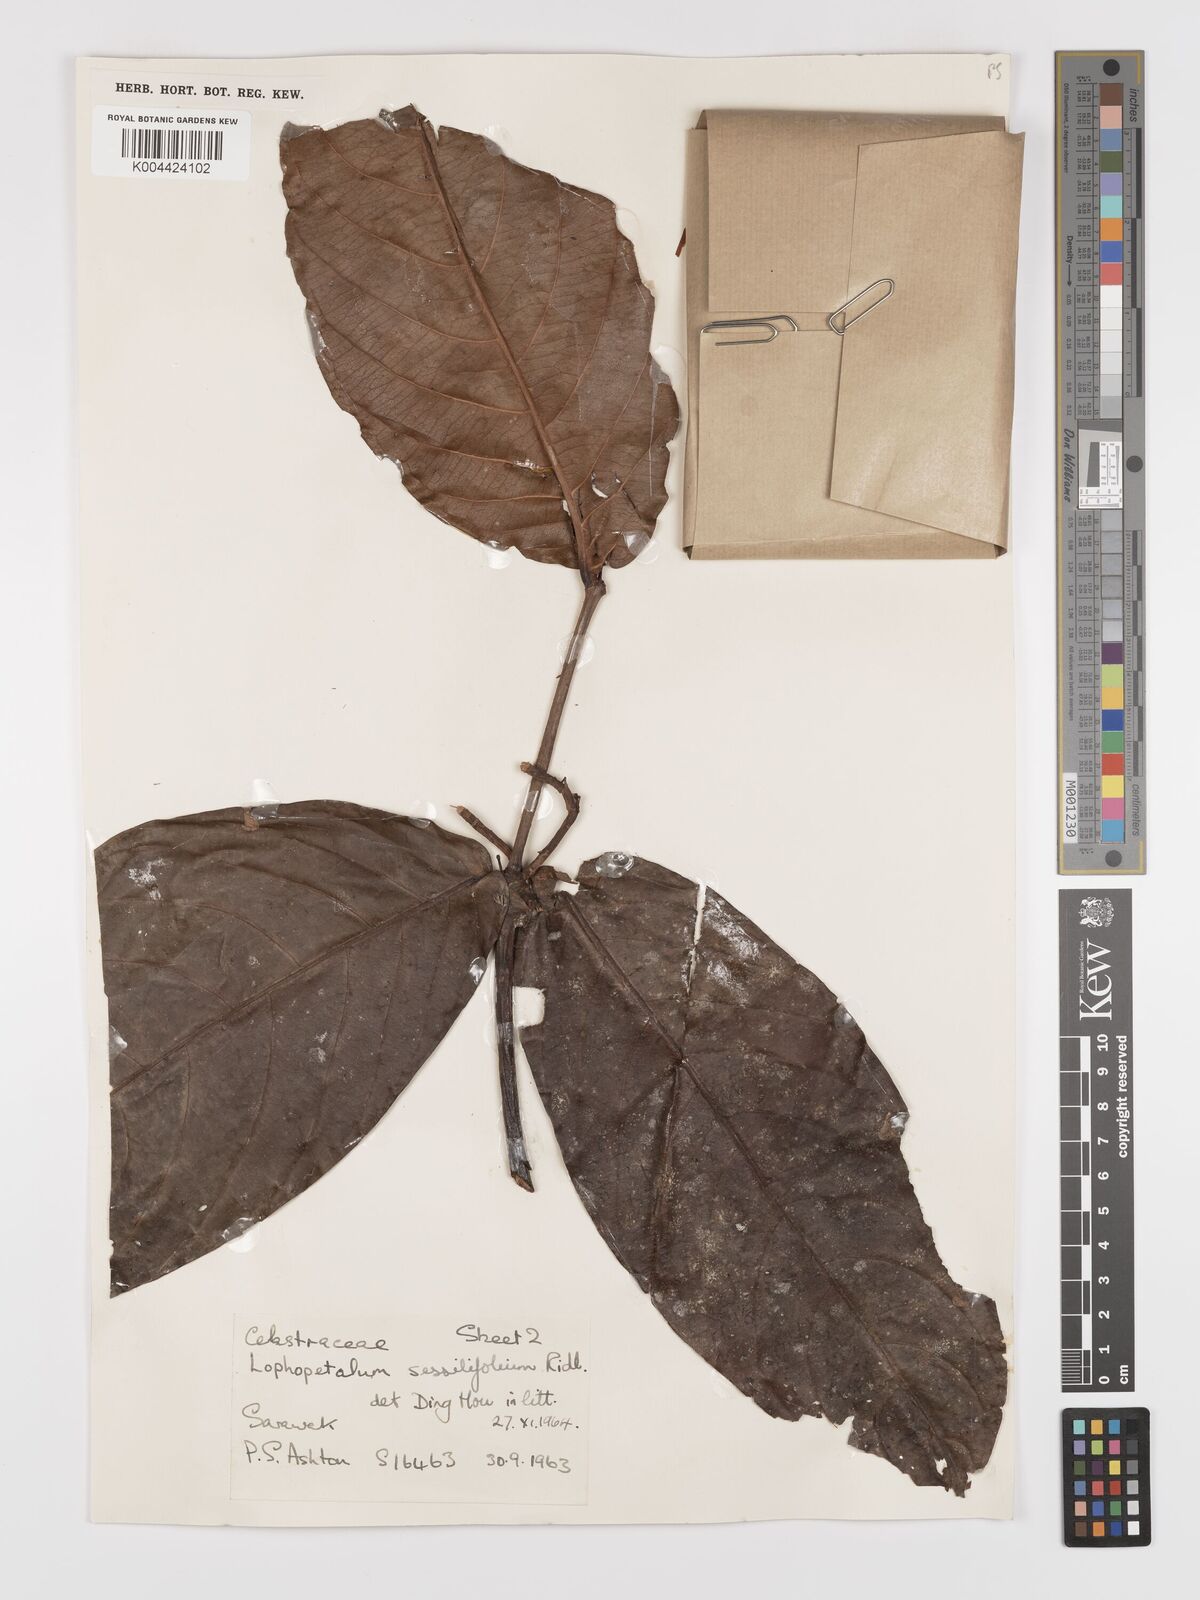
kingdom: Plantae
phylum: Tracheophyta
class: Magnoliopsida
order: Celastrales
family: Celastraceae
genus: Lophopetalum
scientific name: Lophopetalum sessilifolium
